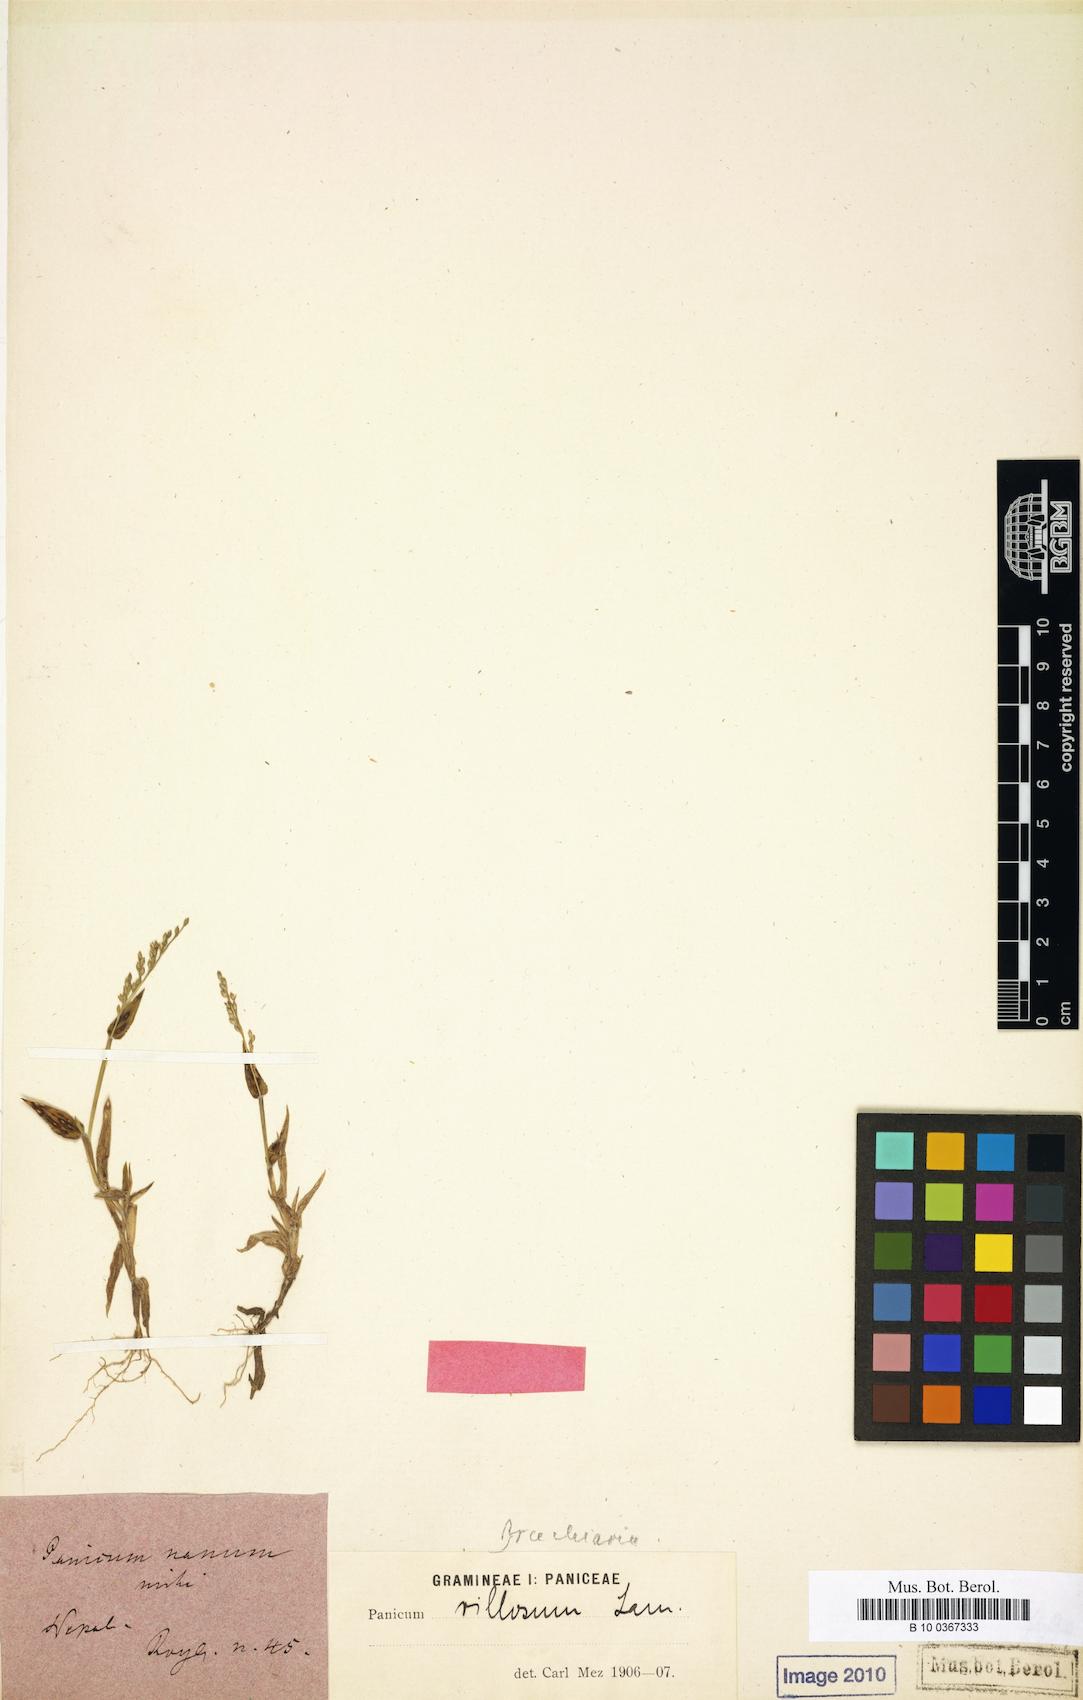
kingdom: Plantae
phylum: Tracheophyta
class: Liliopsida
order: Poales
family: Poaceae
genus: Urochloa
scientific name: Urochloa villosa
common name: Hairy signalgrass
